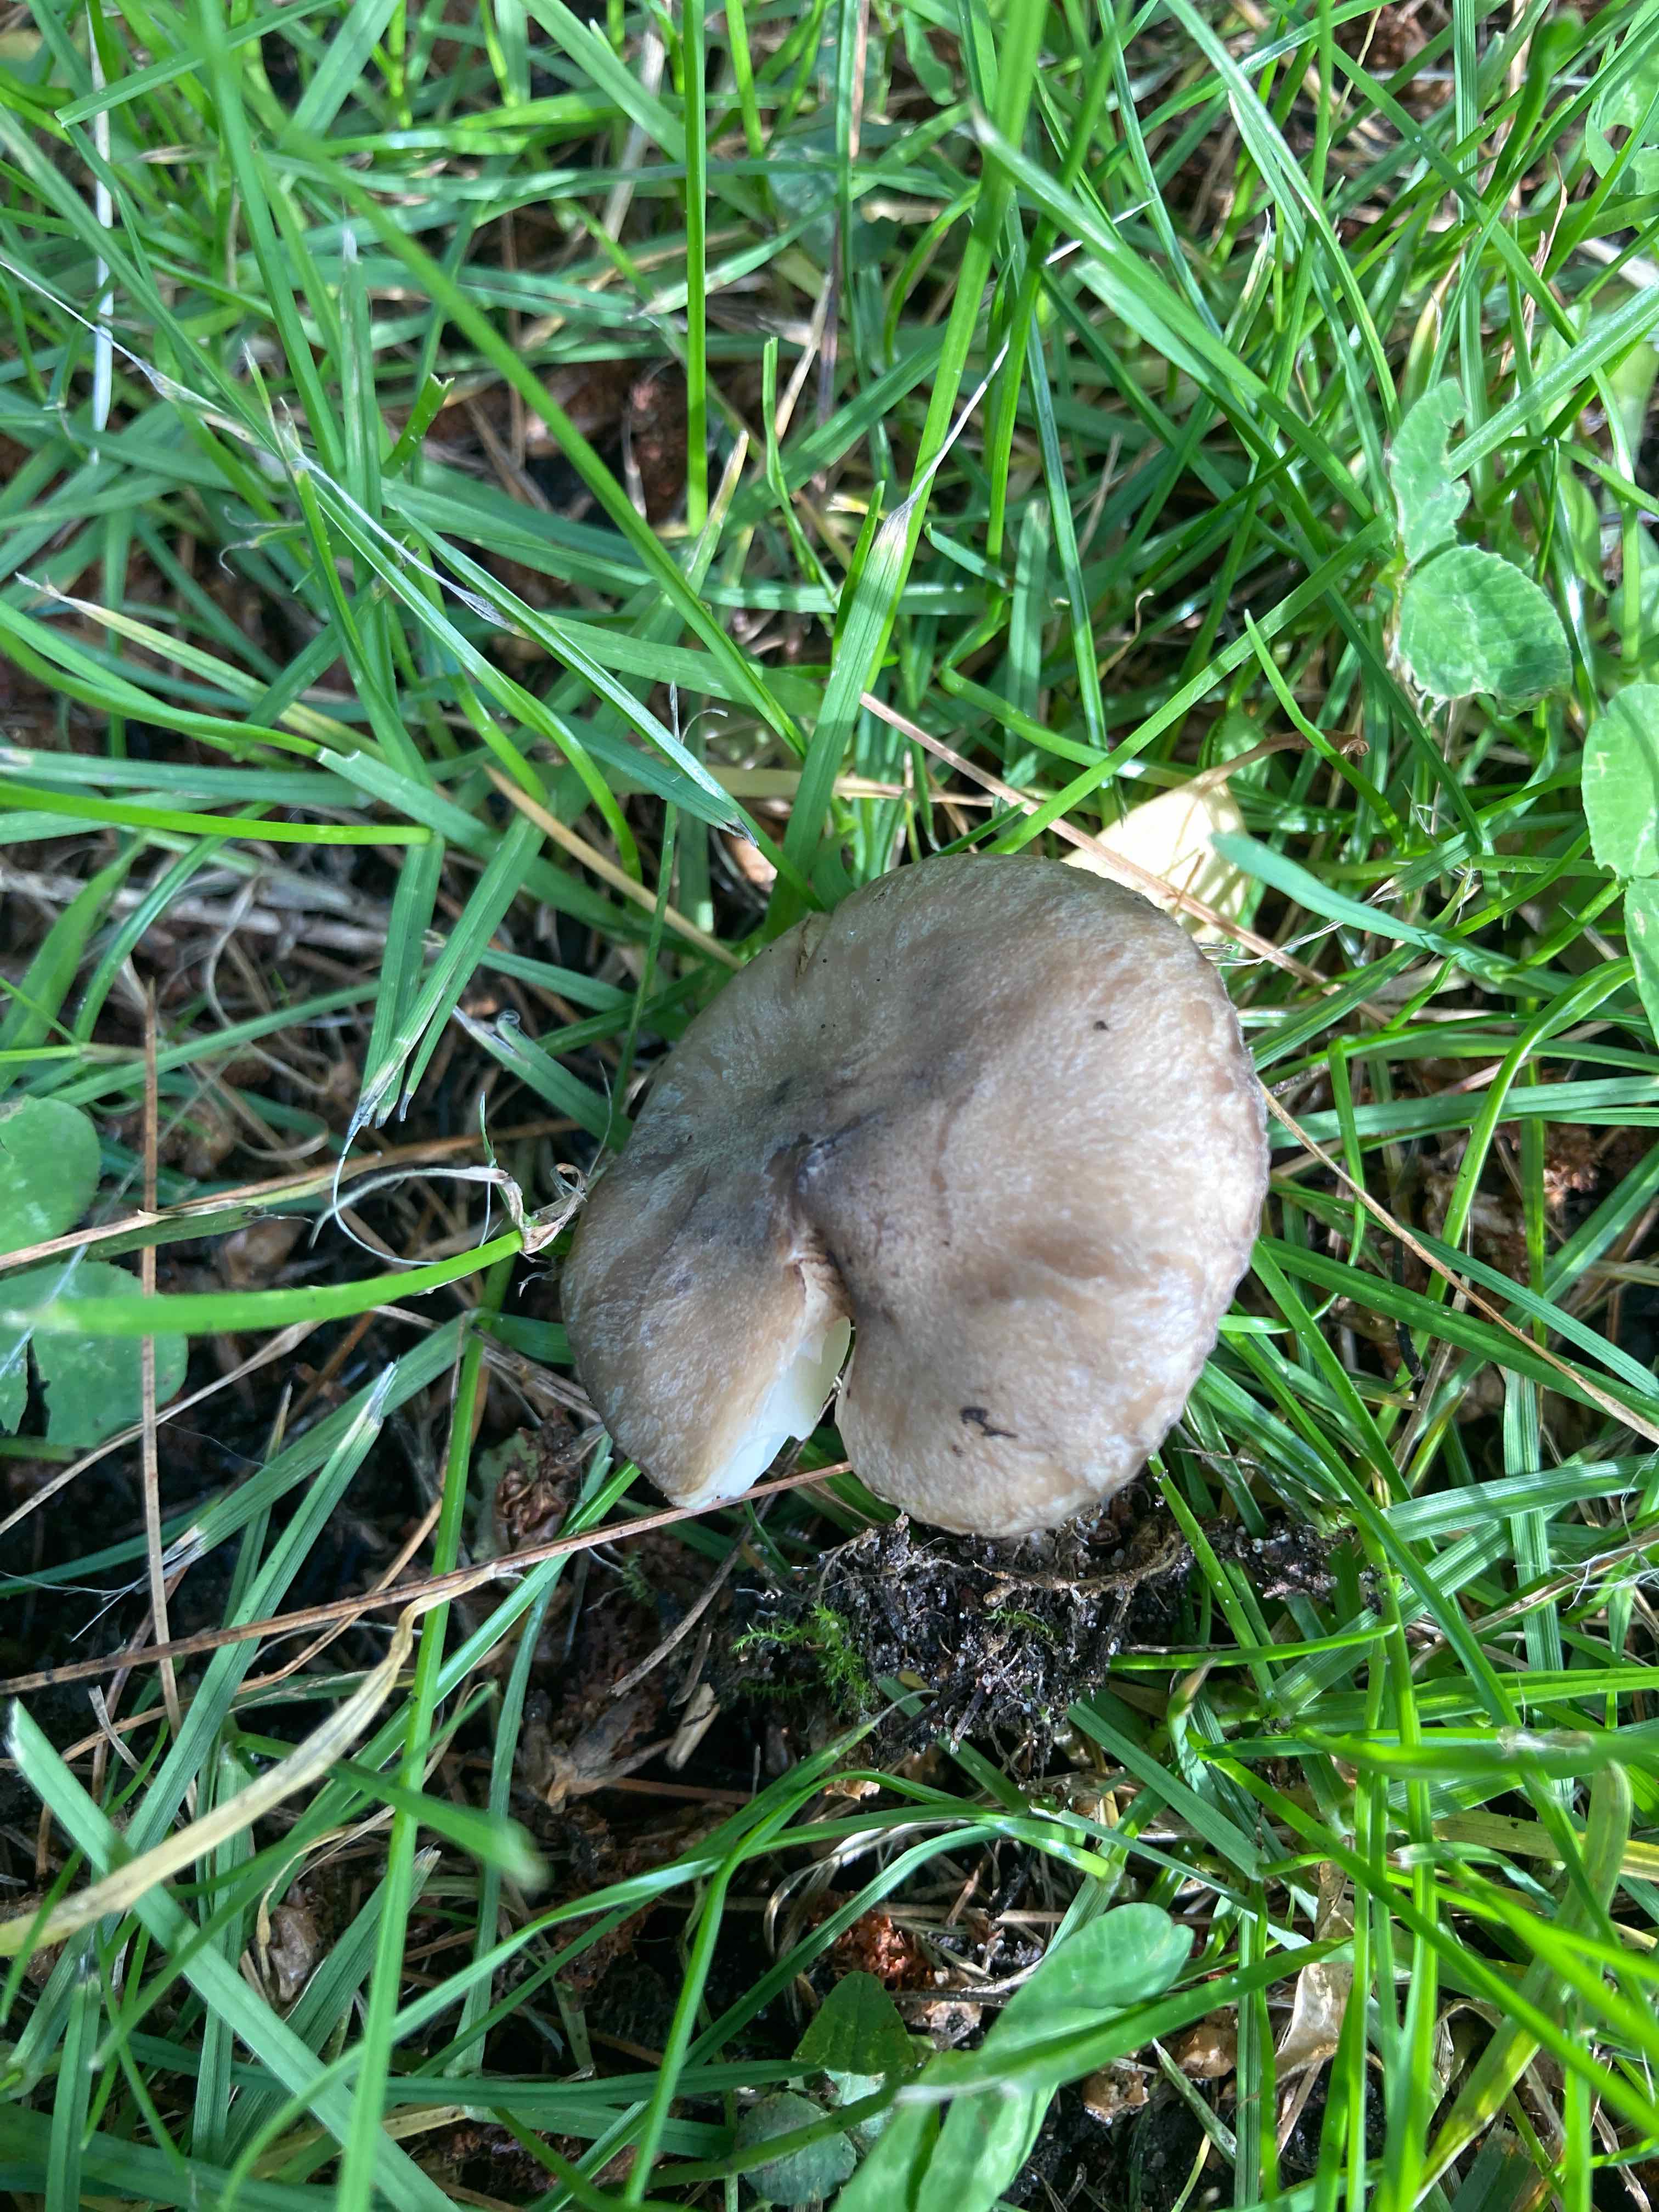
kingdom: Fungi
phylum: Basidiomycota
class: Agaricomycetes
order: Agaricales
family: Lyophyllaceae
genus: Lyophyllum
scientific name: Lyophyllum paelochroum
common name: blånende gråblad
